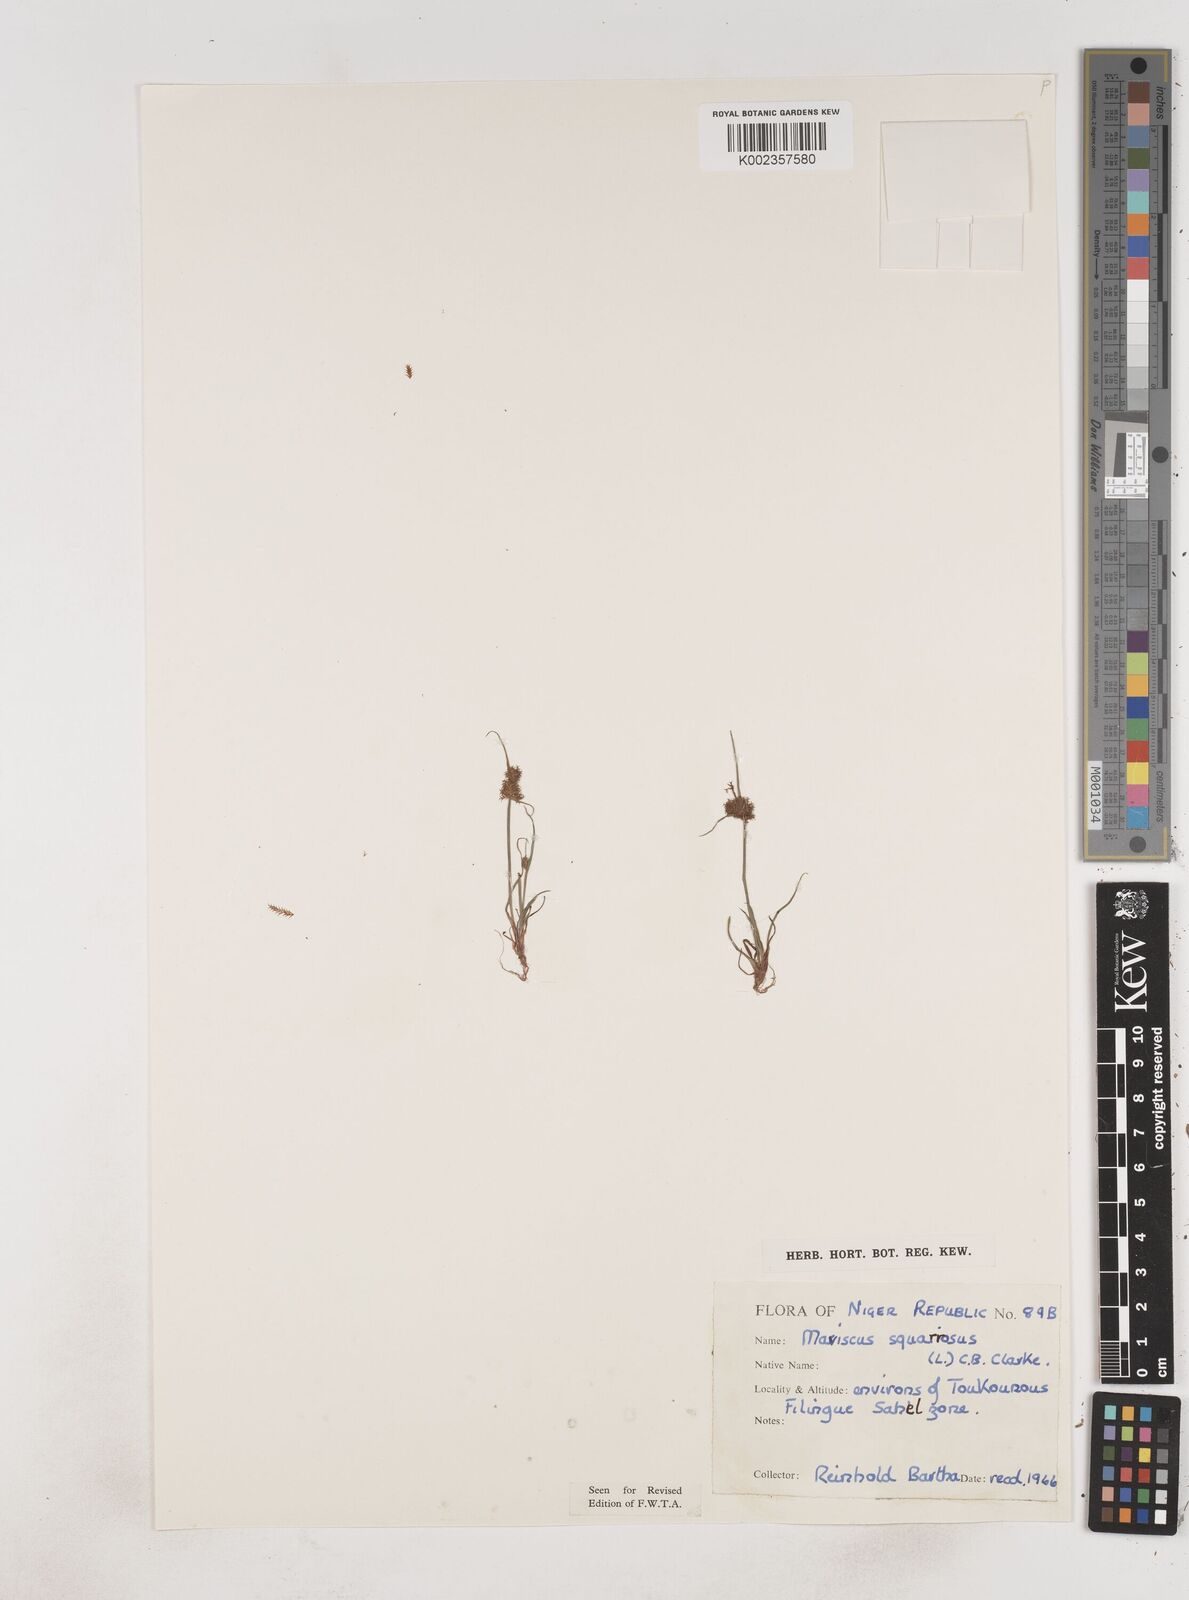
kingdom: Plantae
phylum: Tracheophyta
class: Liliopsida
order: Poales
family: Cyperaceae
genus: Cyperus
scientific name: Cyperus squarrosus
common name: Awned cyperus
